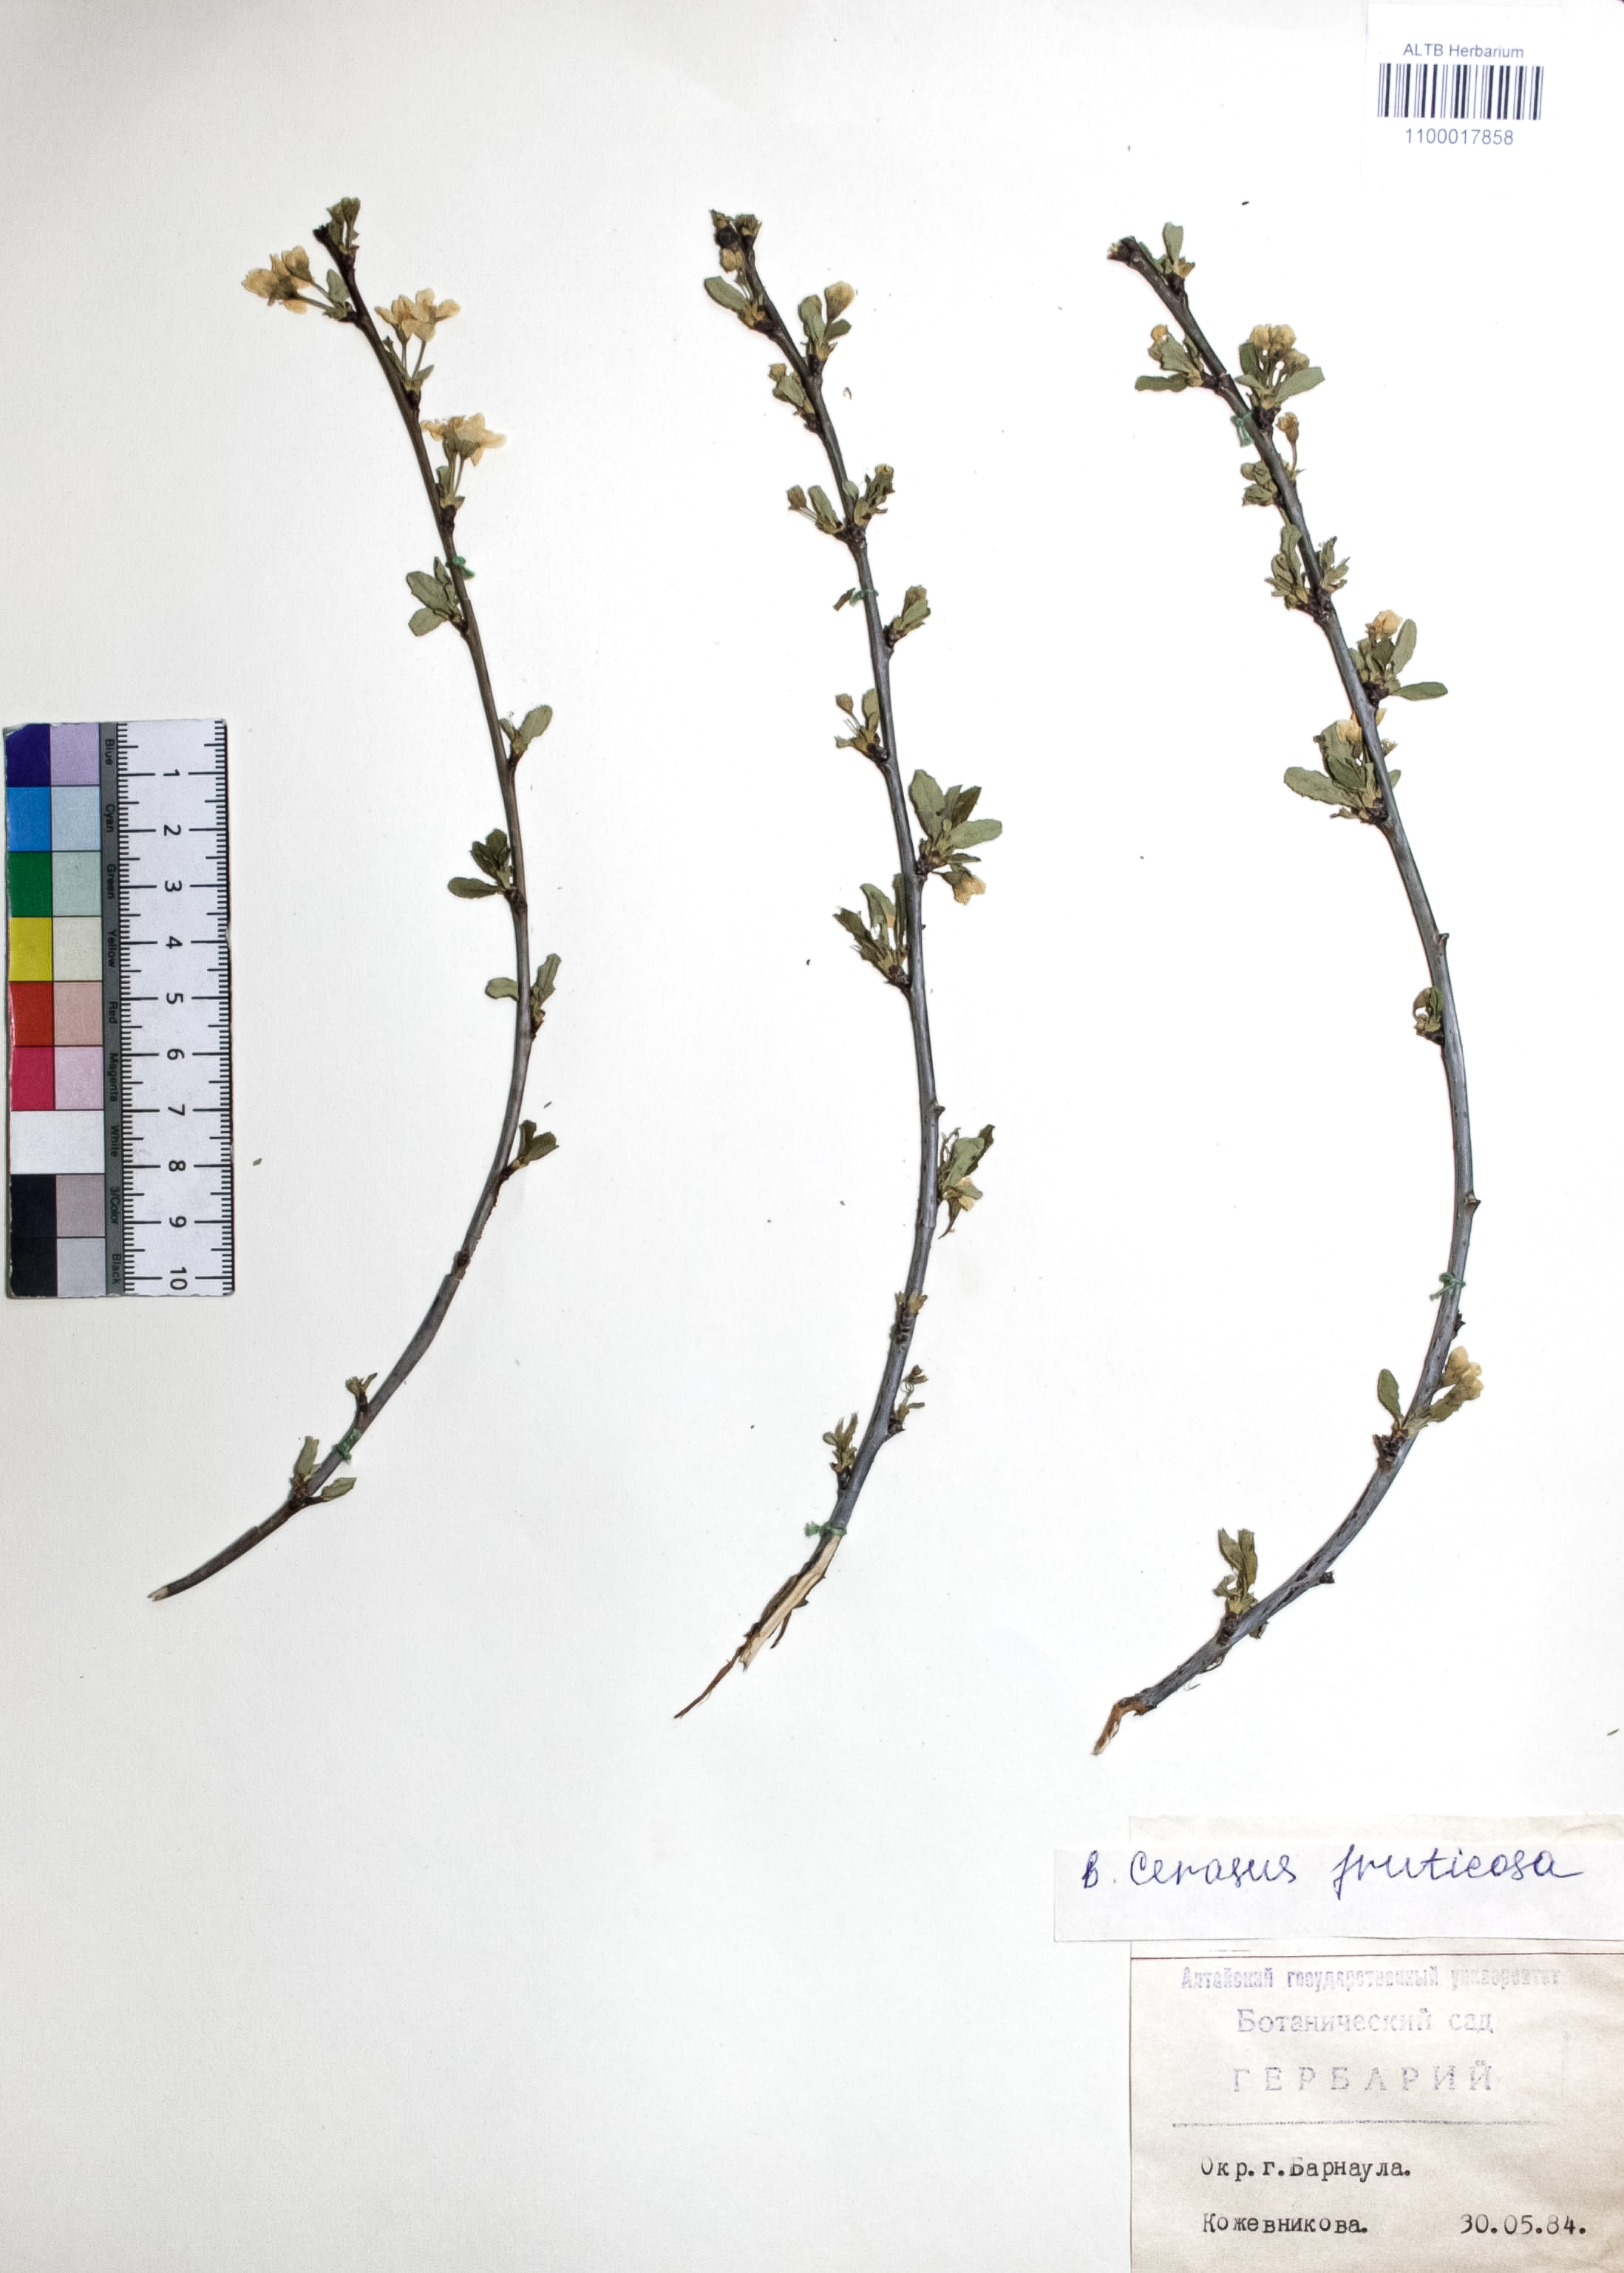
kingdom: Plantae
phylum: Tracheophyta
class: Magnoliopsida
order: Rosales
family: Rosaceae
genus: Prunus
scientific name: Prunus cerasus
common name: Morello cherry
